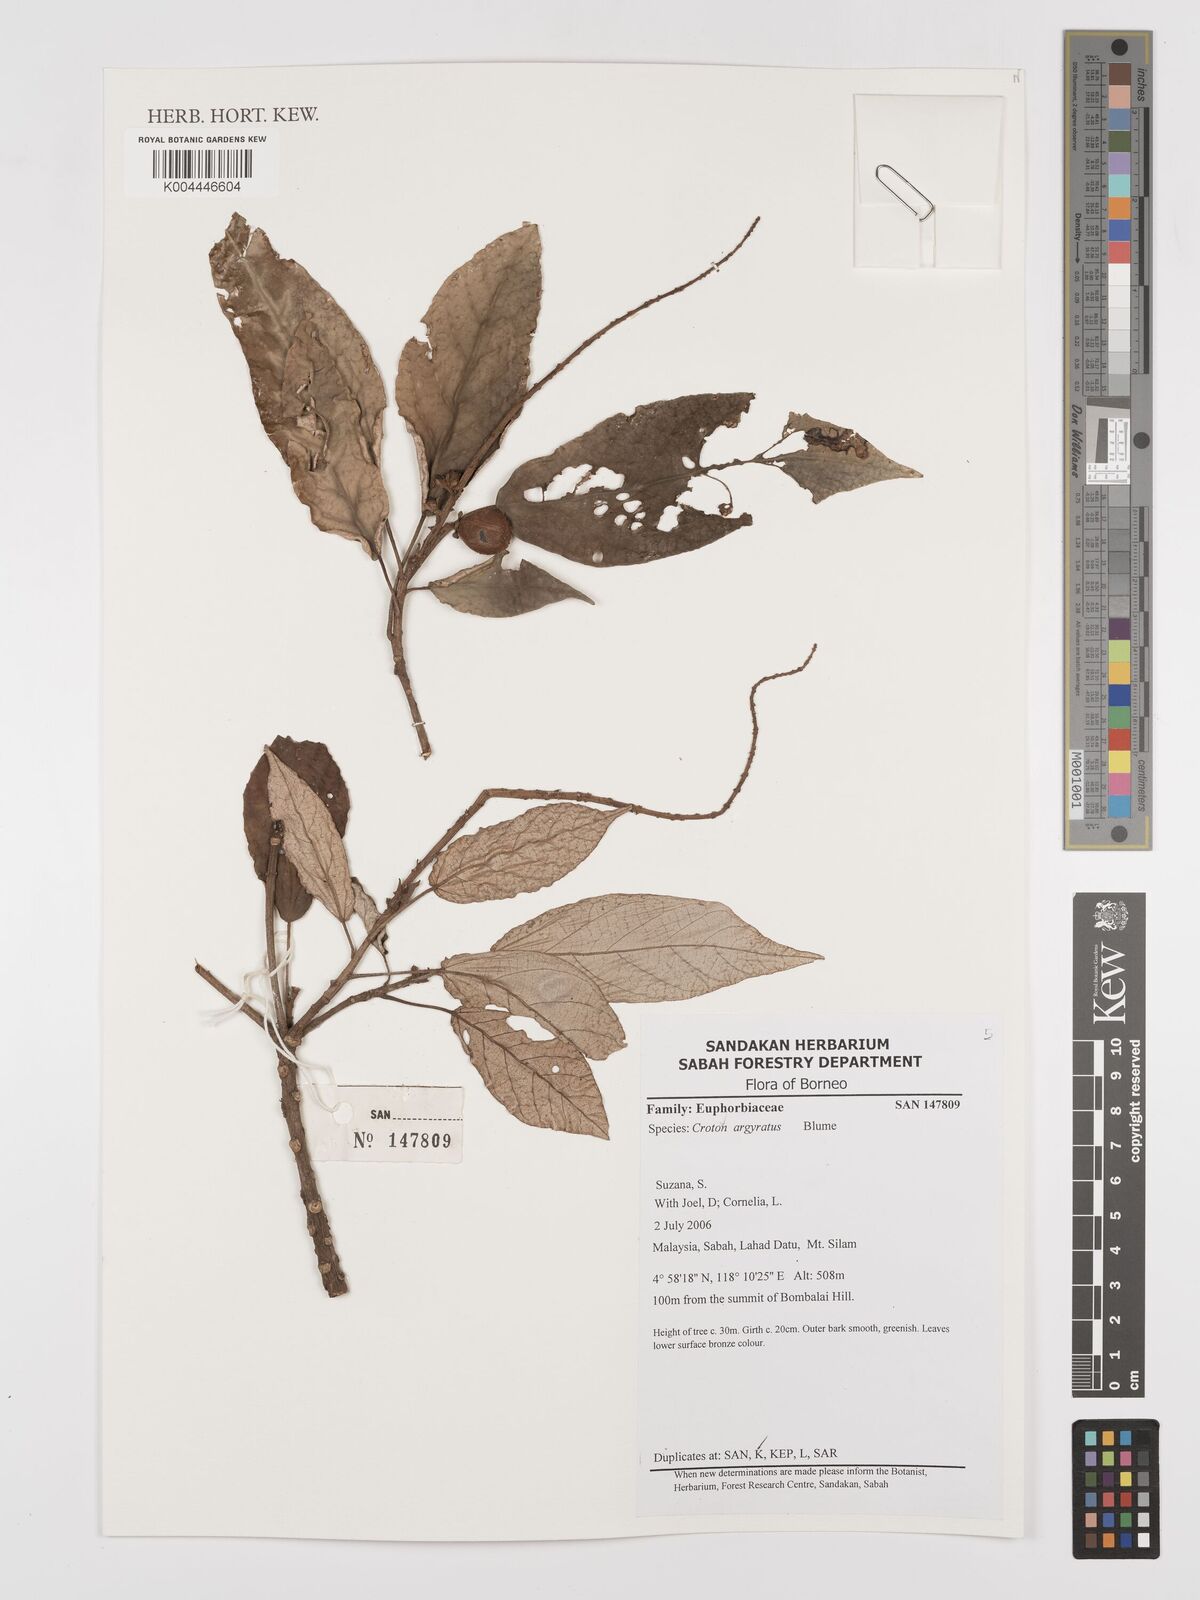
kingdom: Plantae
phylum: Tracheophyta
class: Magnoliopsida
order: Malpighiales
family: Euphorbiaceae
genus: Croton
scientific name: Croton argyratus
